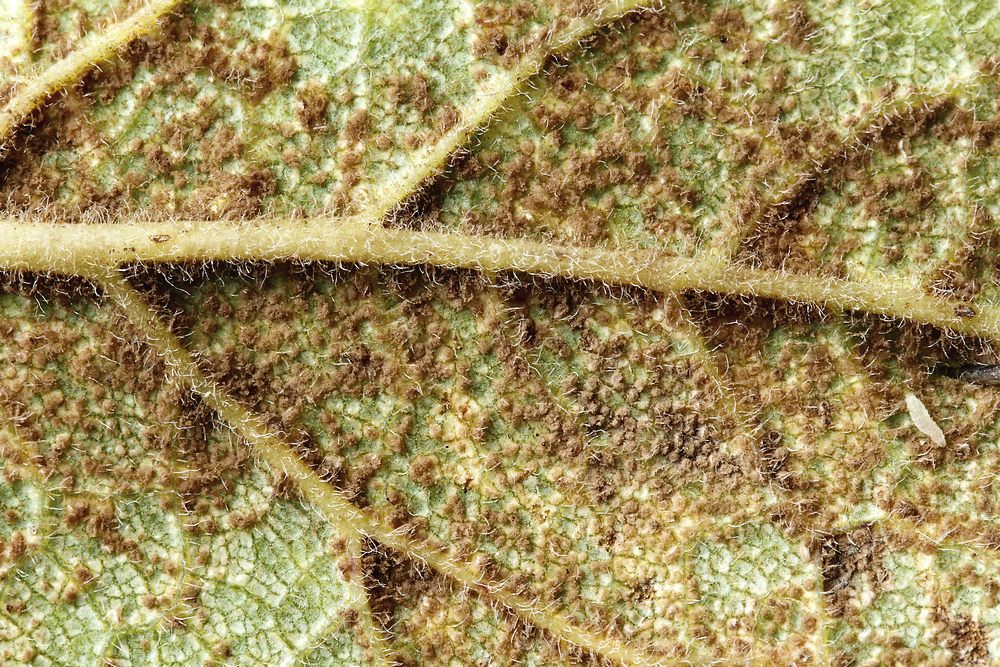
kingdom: Fungi
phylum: Basidiomycota
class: Pucciniomycetes
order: Pucciniales
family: Tranzscheliaceae
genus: Tranzschelia
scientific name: Tranzschelia discolor
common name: Plum rust
